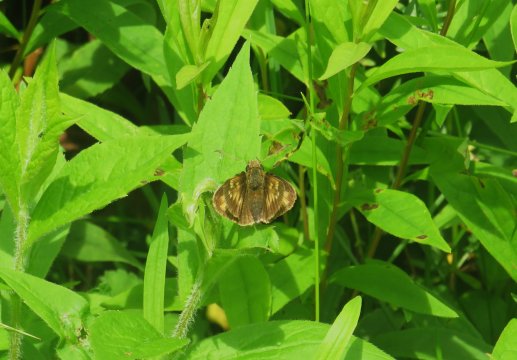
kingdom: Animalia
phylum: Arthropoda
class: Insecta
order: Lepidoptera
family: Hesperiidae
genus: Lon
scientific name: Lon hobomok
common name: Hobomok Skipper
